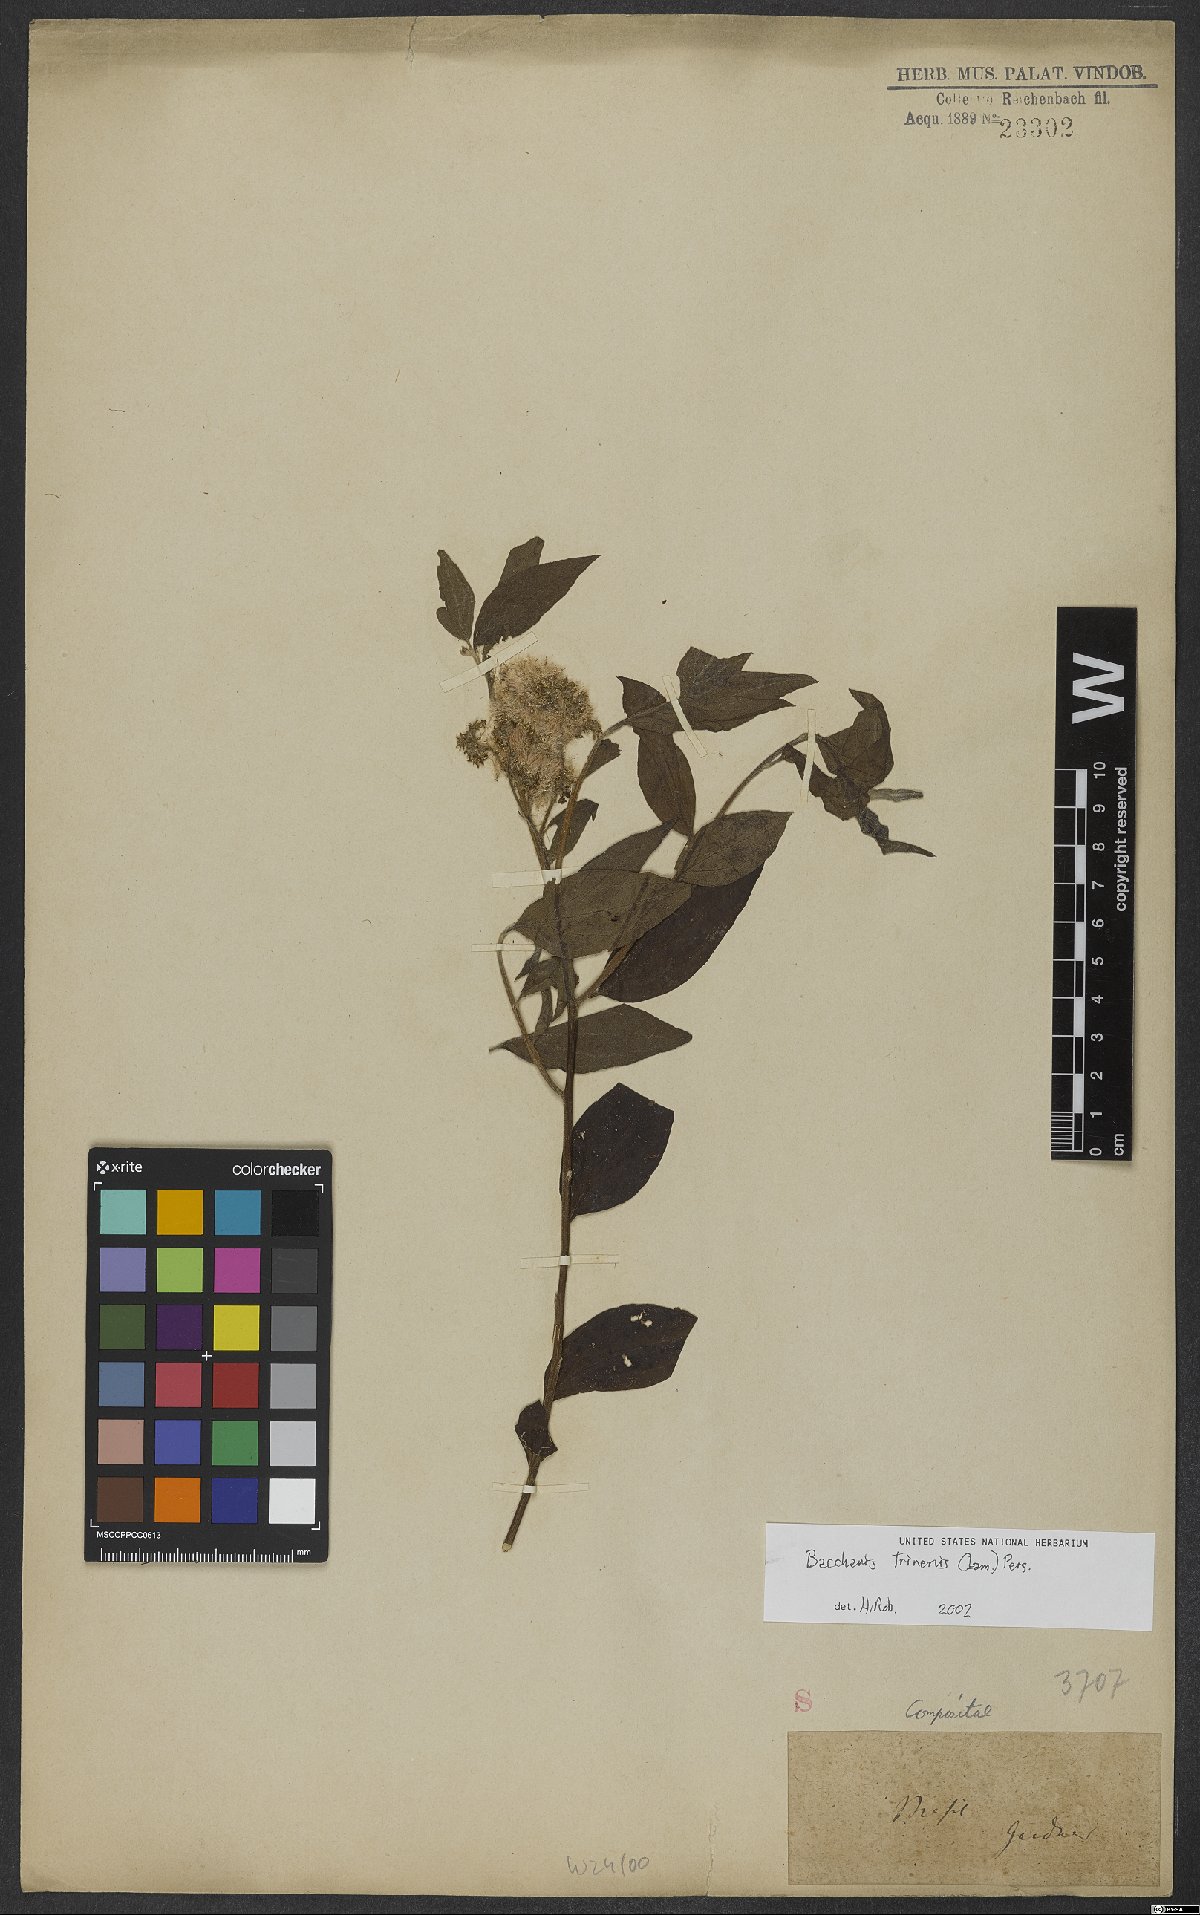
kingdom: Plantae
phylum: Tracheophyta
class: Magnoliopsida
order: Asterales
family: Asteraceae
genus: Baccharis
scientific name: Baccharis trinervis
